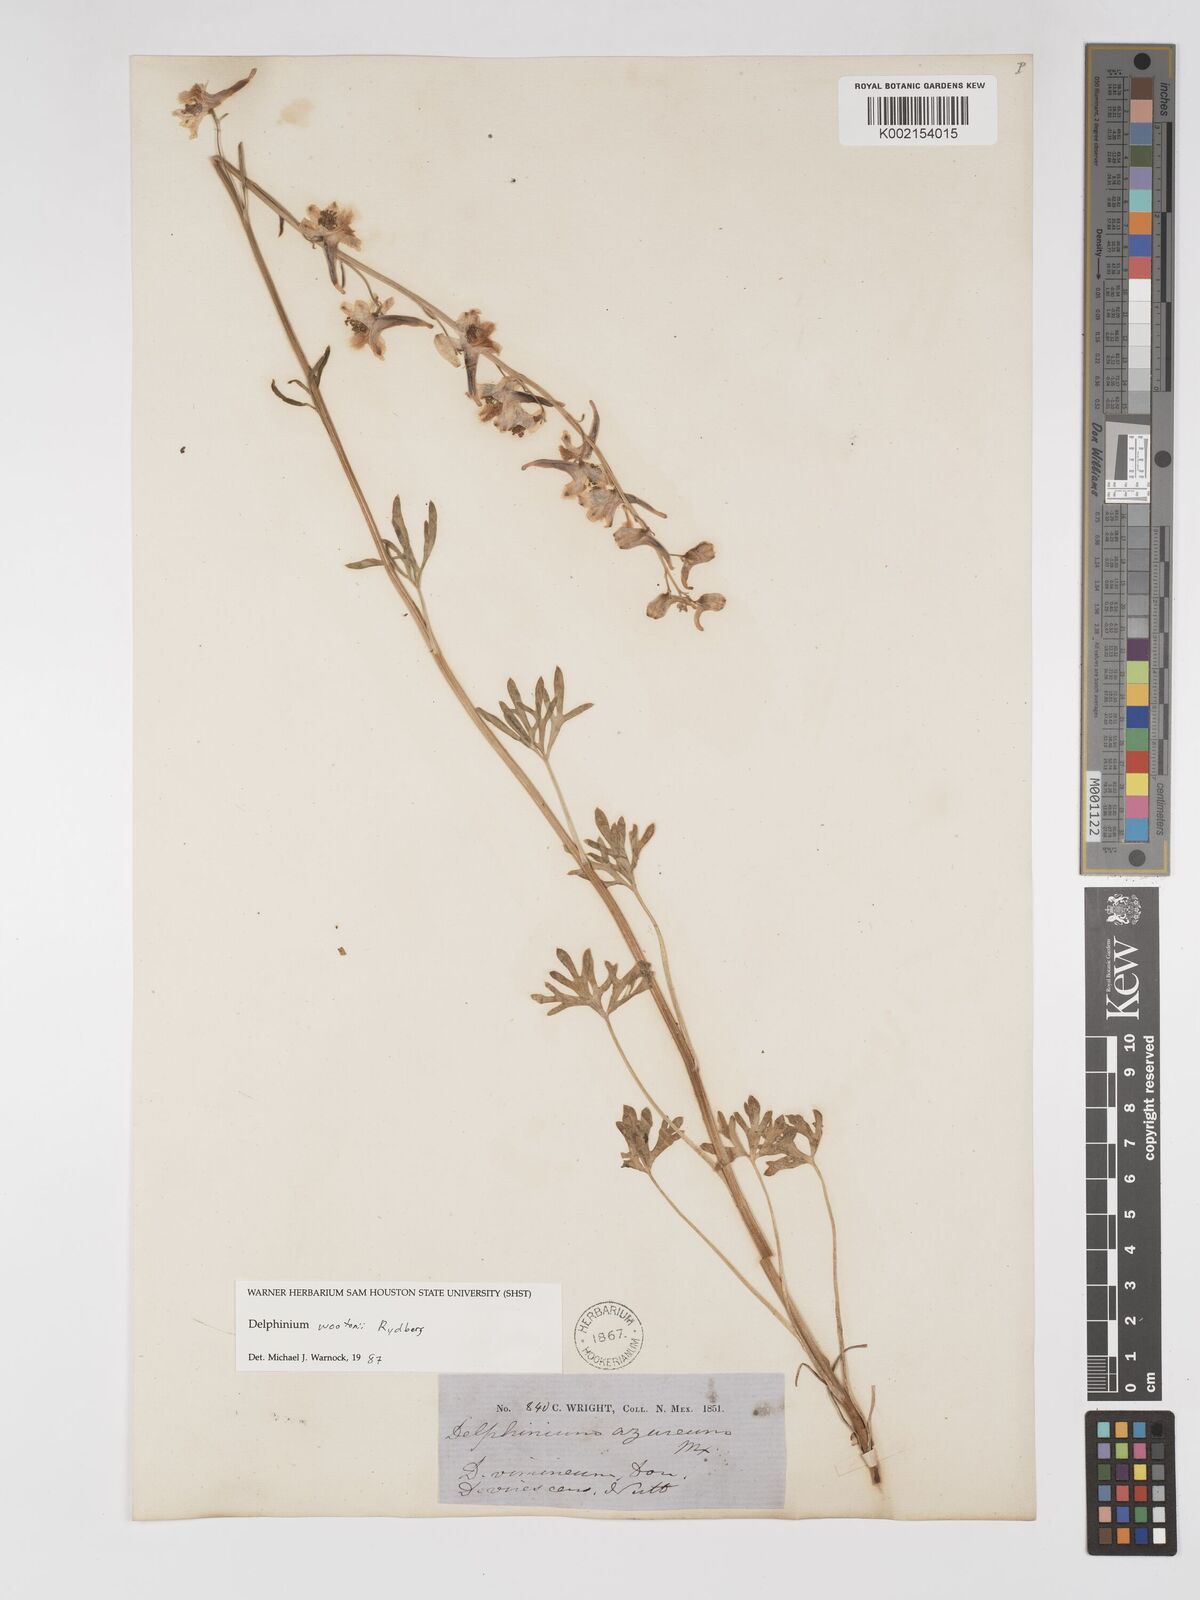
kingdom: Plantae
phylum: Tracheophyta
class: Magnoliopsida
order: Ranunculales
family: Ranunculaceae
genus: Delphinium
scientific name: Delphinium wootonii
